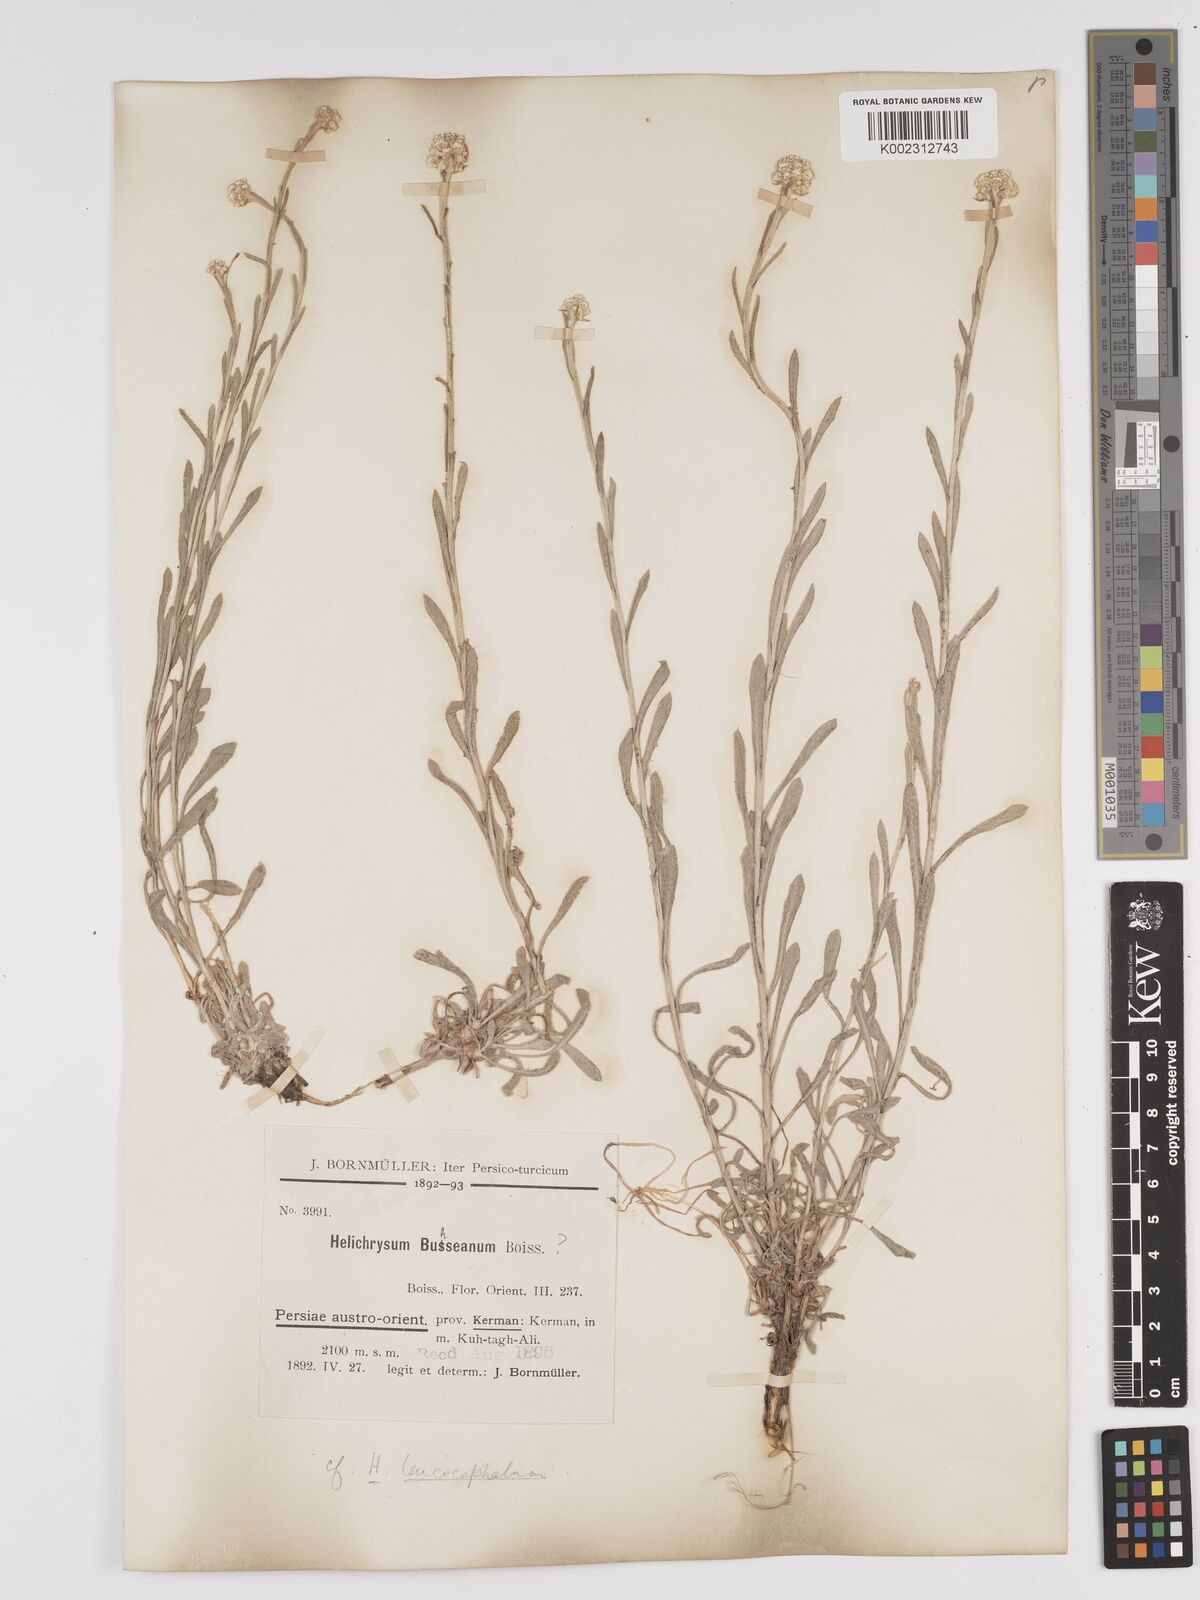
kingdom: Plantae
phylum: Tracheophyta
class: Magnoliopsida
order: Asterales
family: Asteraceae
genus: Helichrysum
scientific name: Helichrysum leucocephalum
